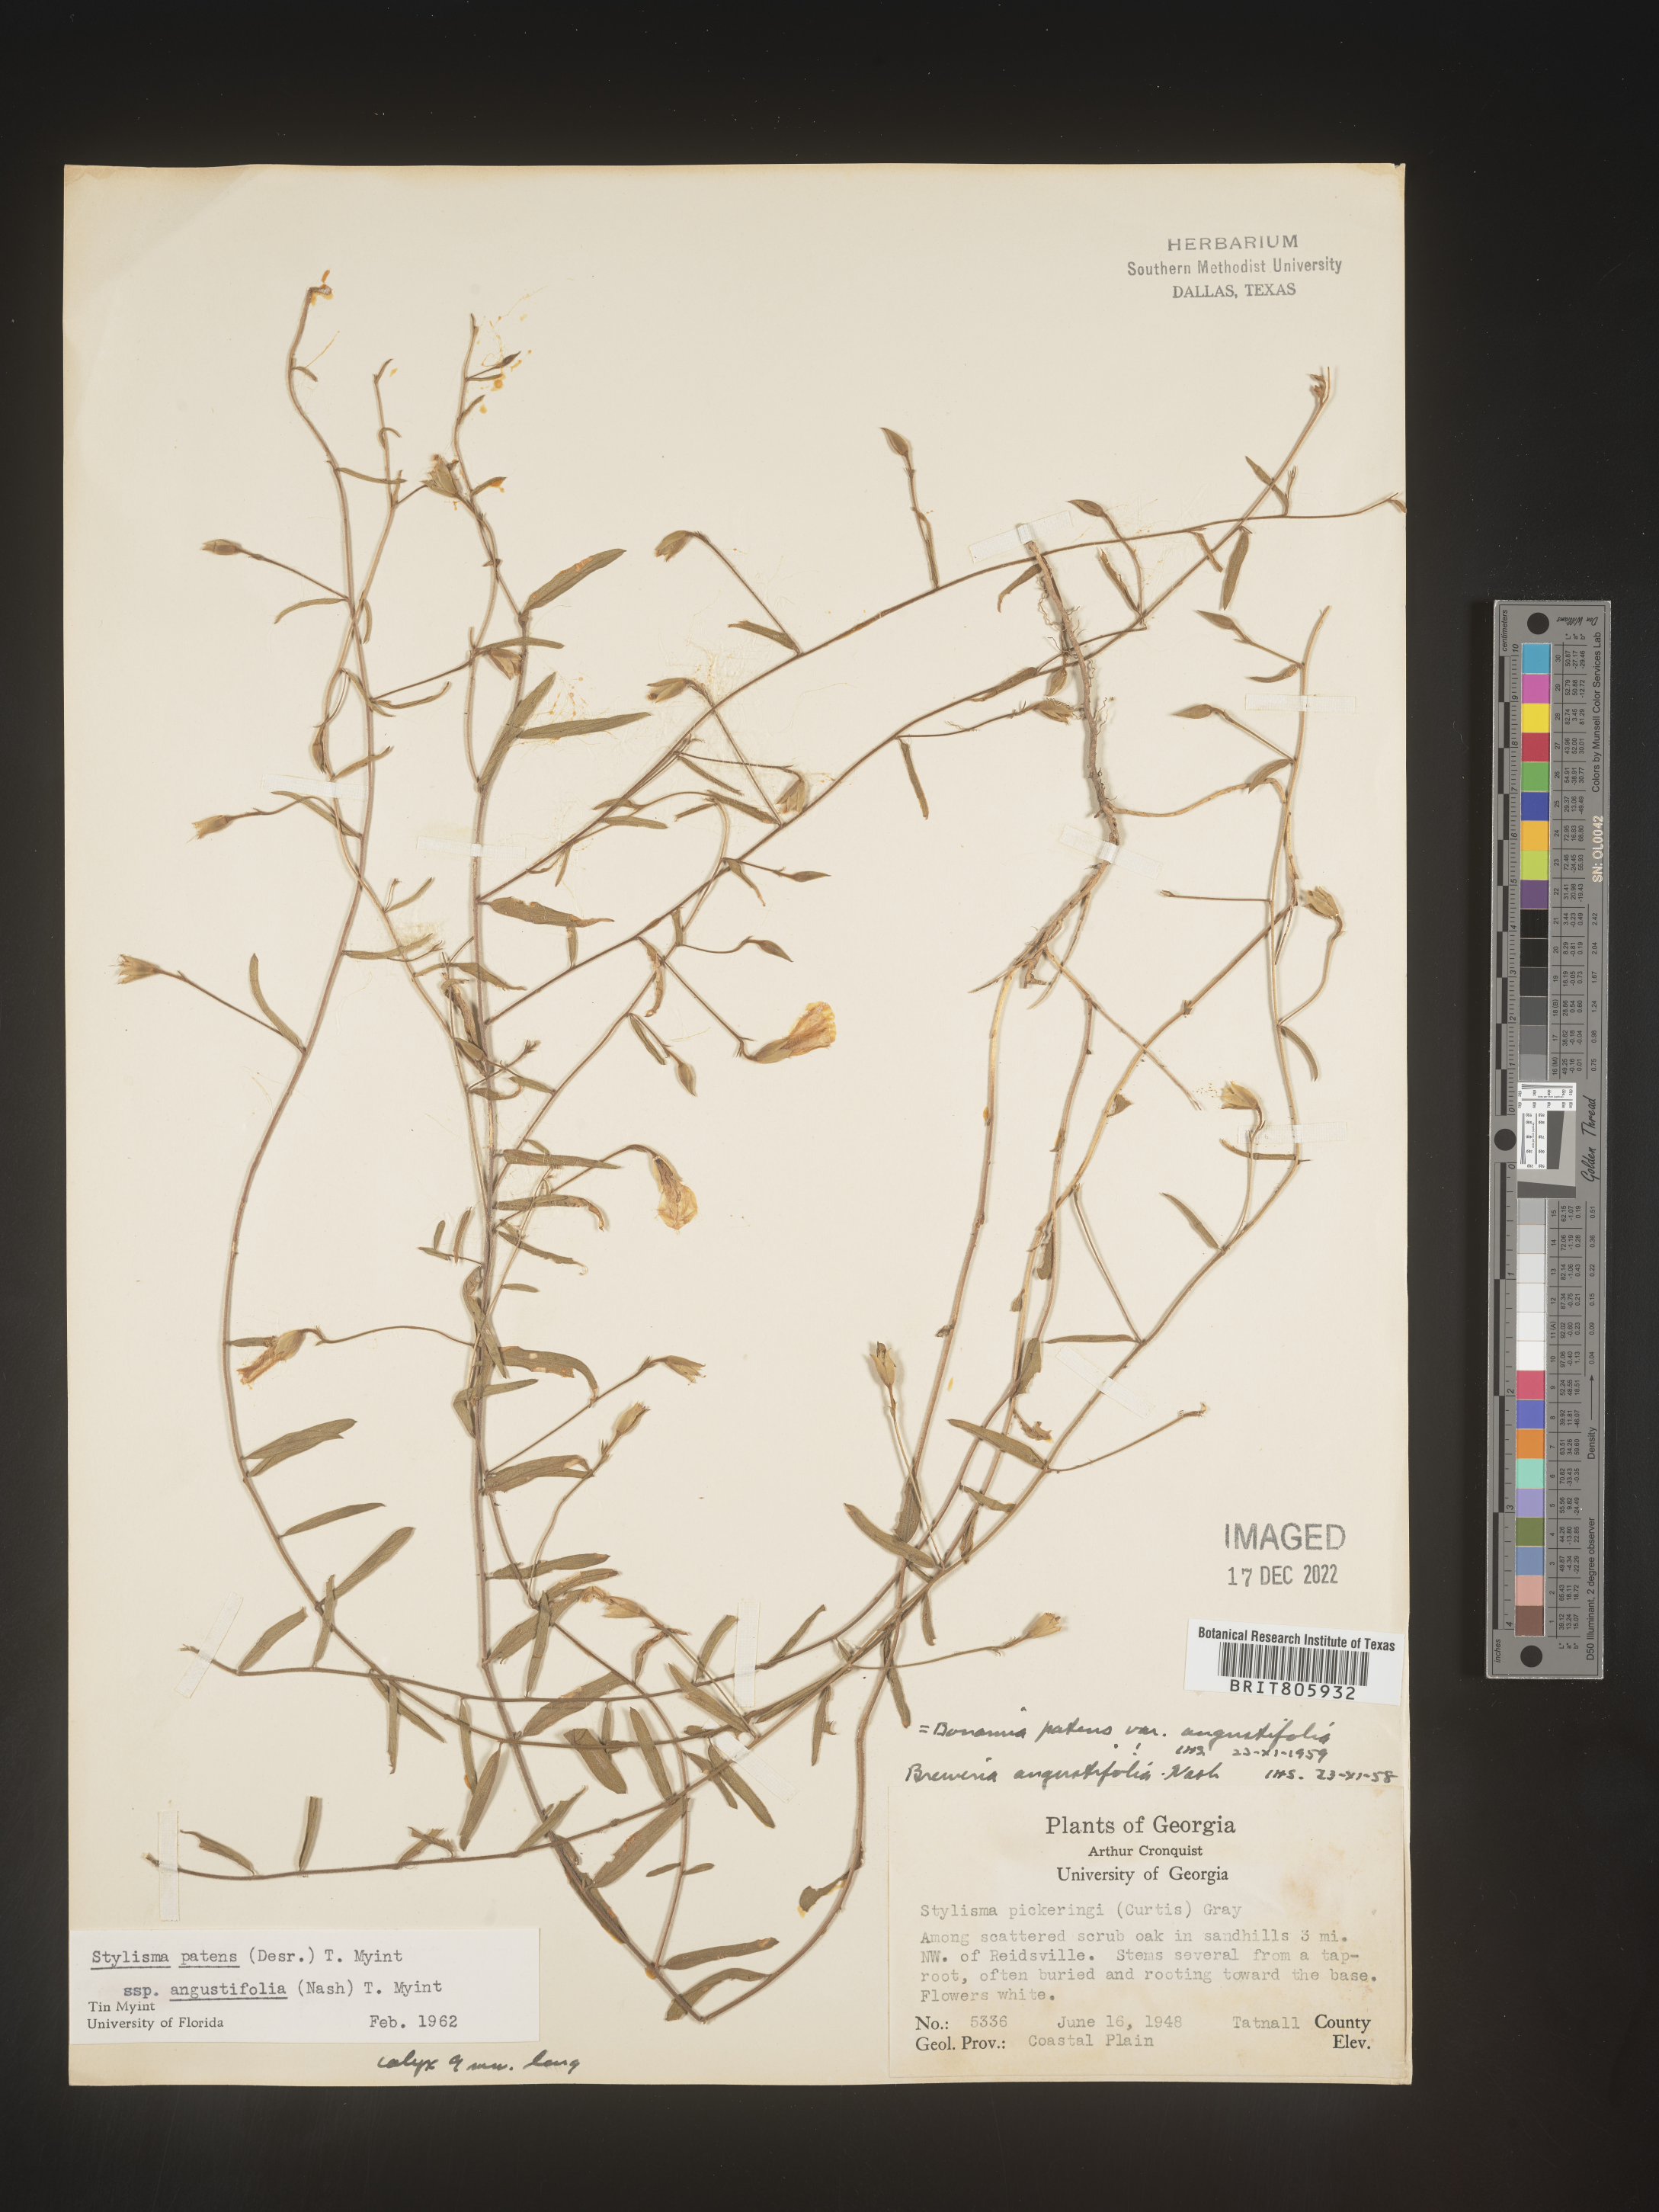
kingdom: Plantae
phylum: Tracheophyta
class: Magnoliopsida
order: Solanales
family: Convolvulaceae
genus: Stylisma
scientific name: Stylisma
